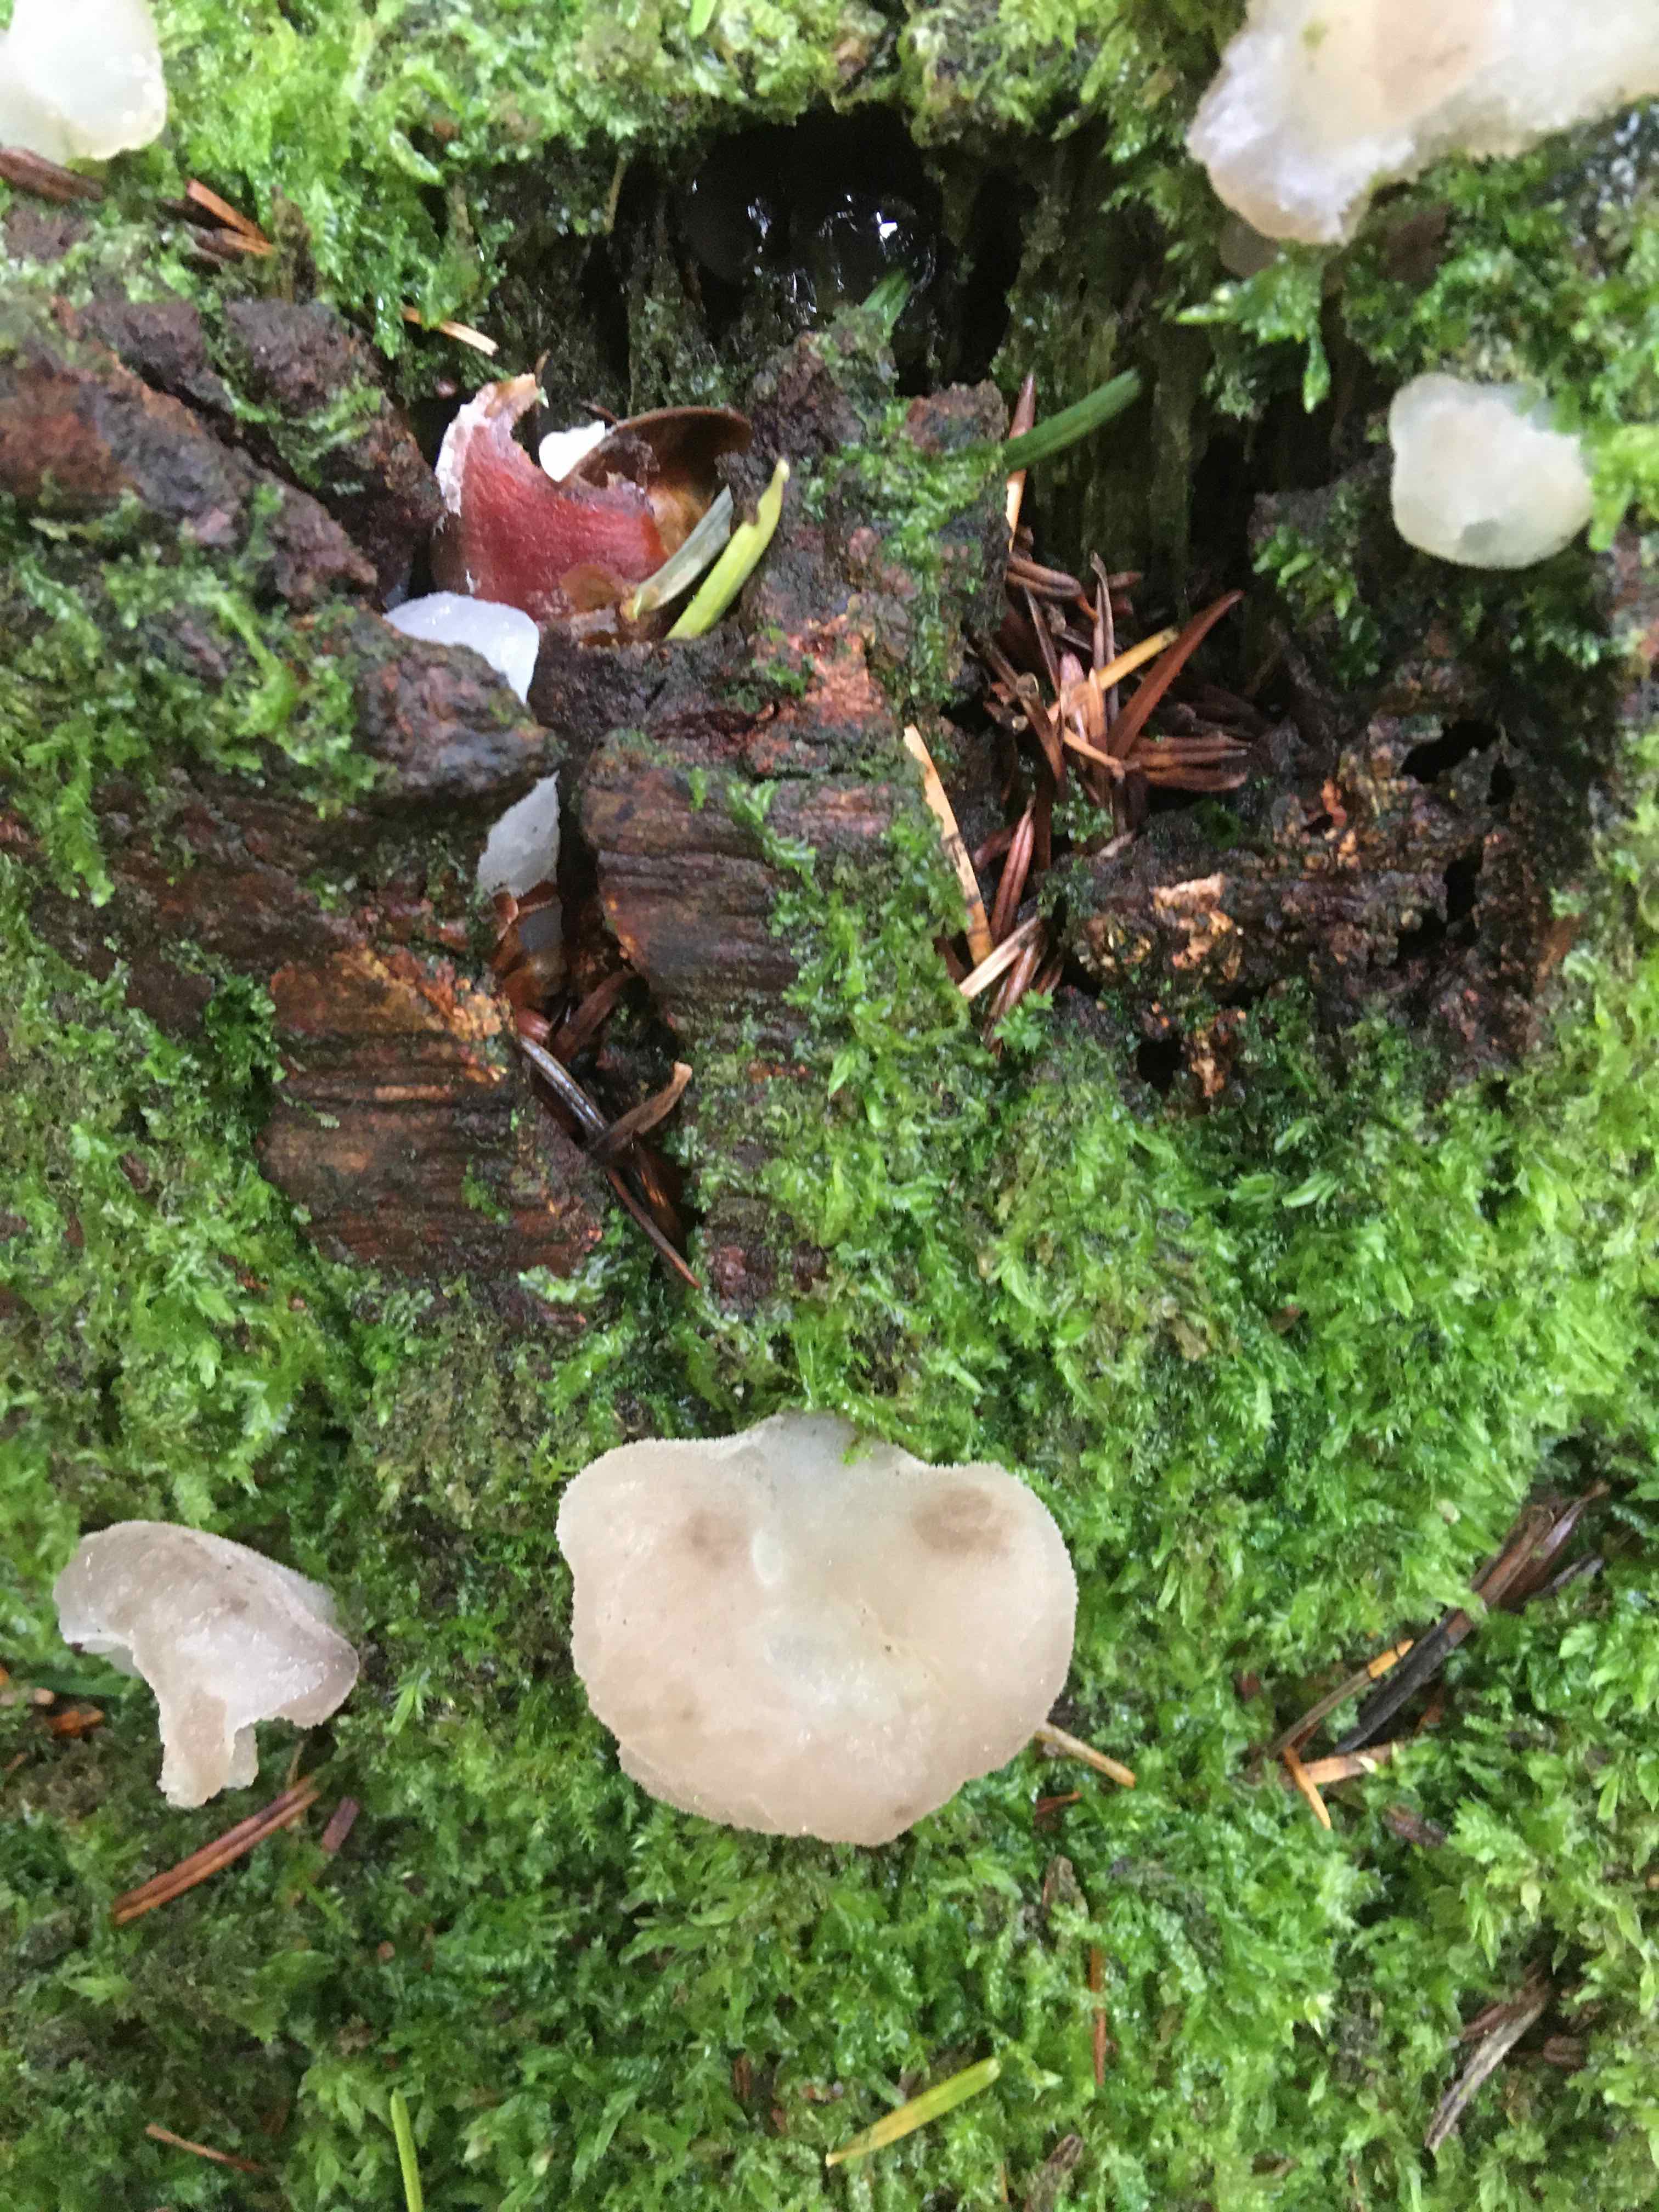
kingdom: Fungi
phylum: Basidiomycota
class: Agaricomycetes
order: Auriculariales
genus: Pseudohydnum
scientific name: Pseudohydnum gelatinosum
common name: bævretand
